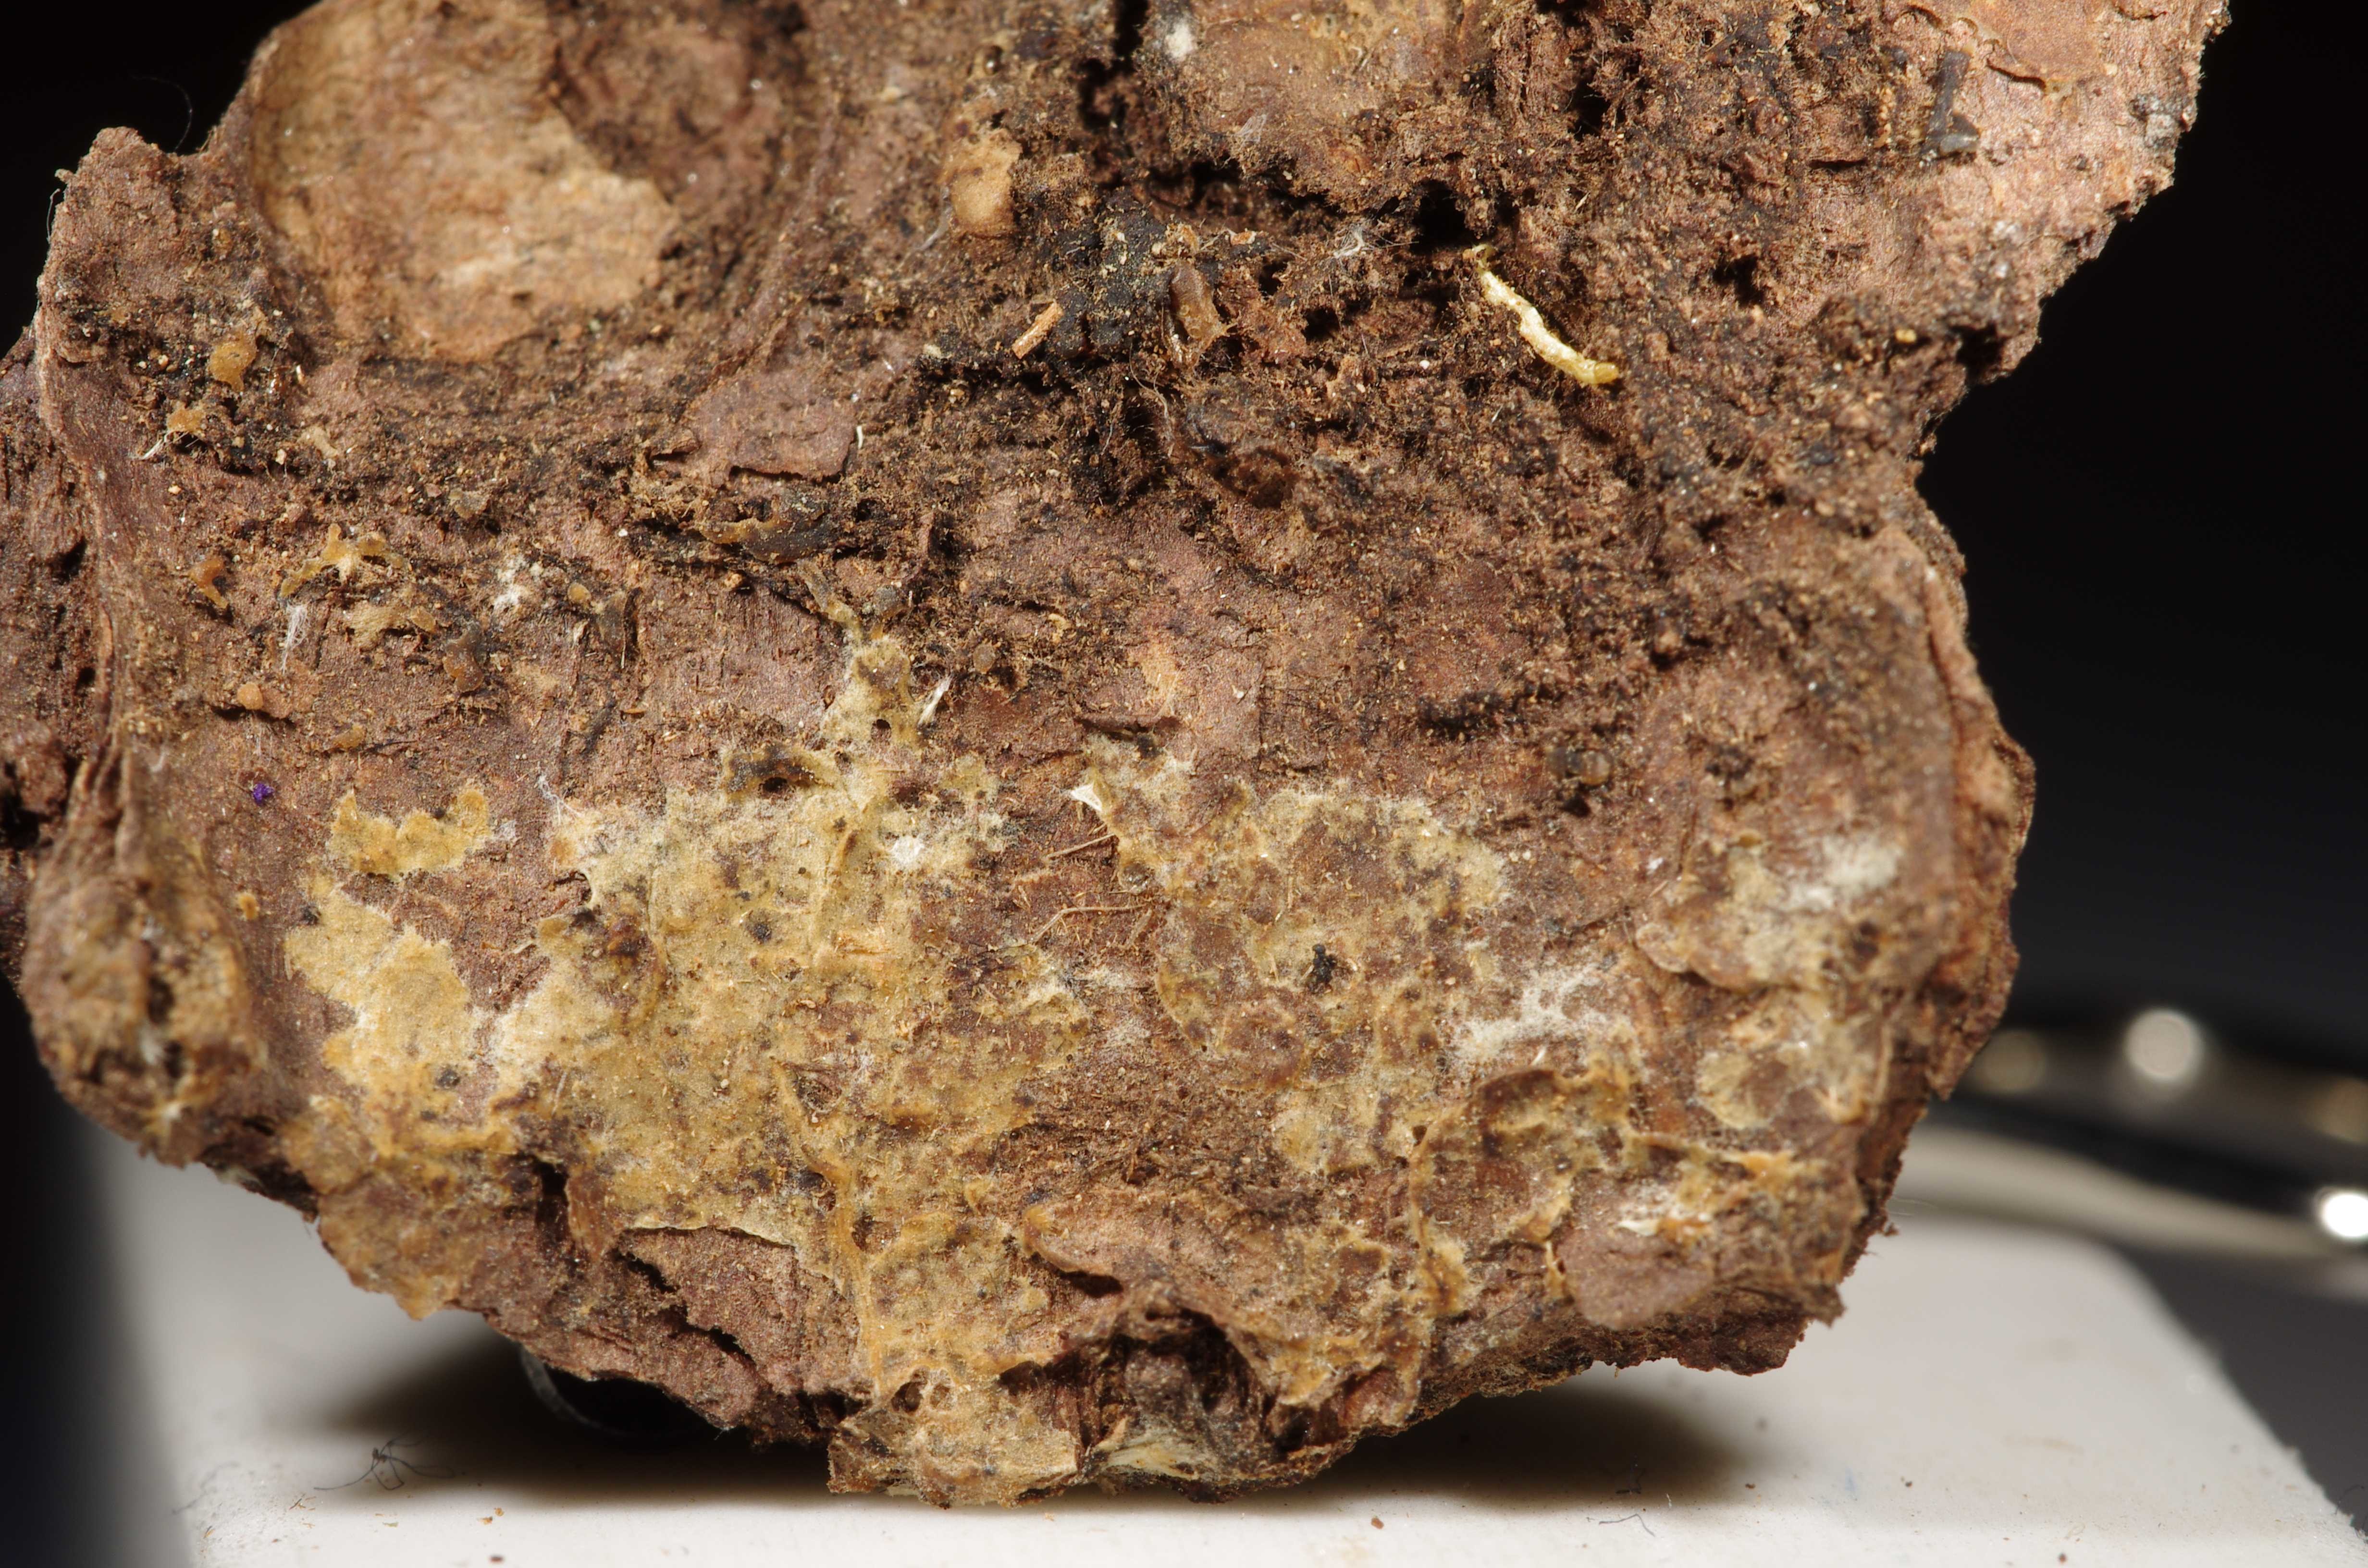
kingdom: Fungi
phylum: Basidiomycota
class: Agaricomycetes
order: Cantharellales
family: Tulasnellaceae
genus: Tulasnella
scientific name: Tulasnella calospora
